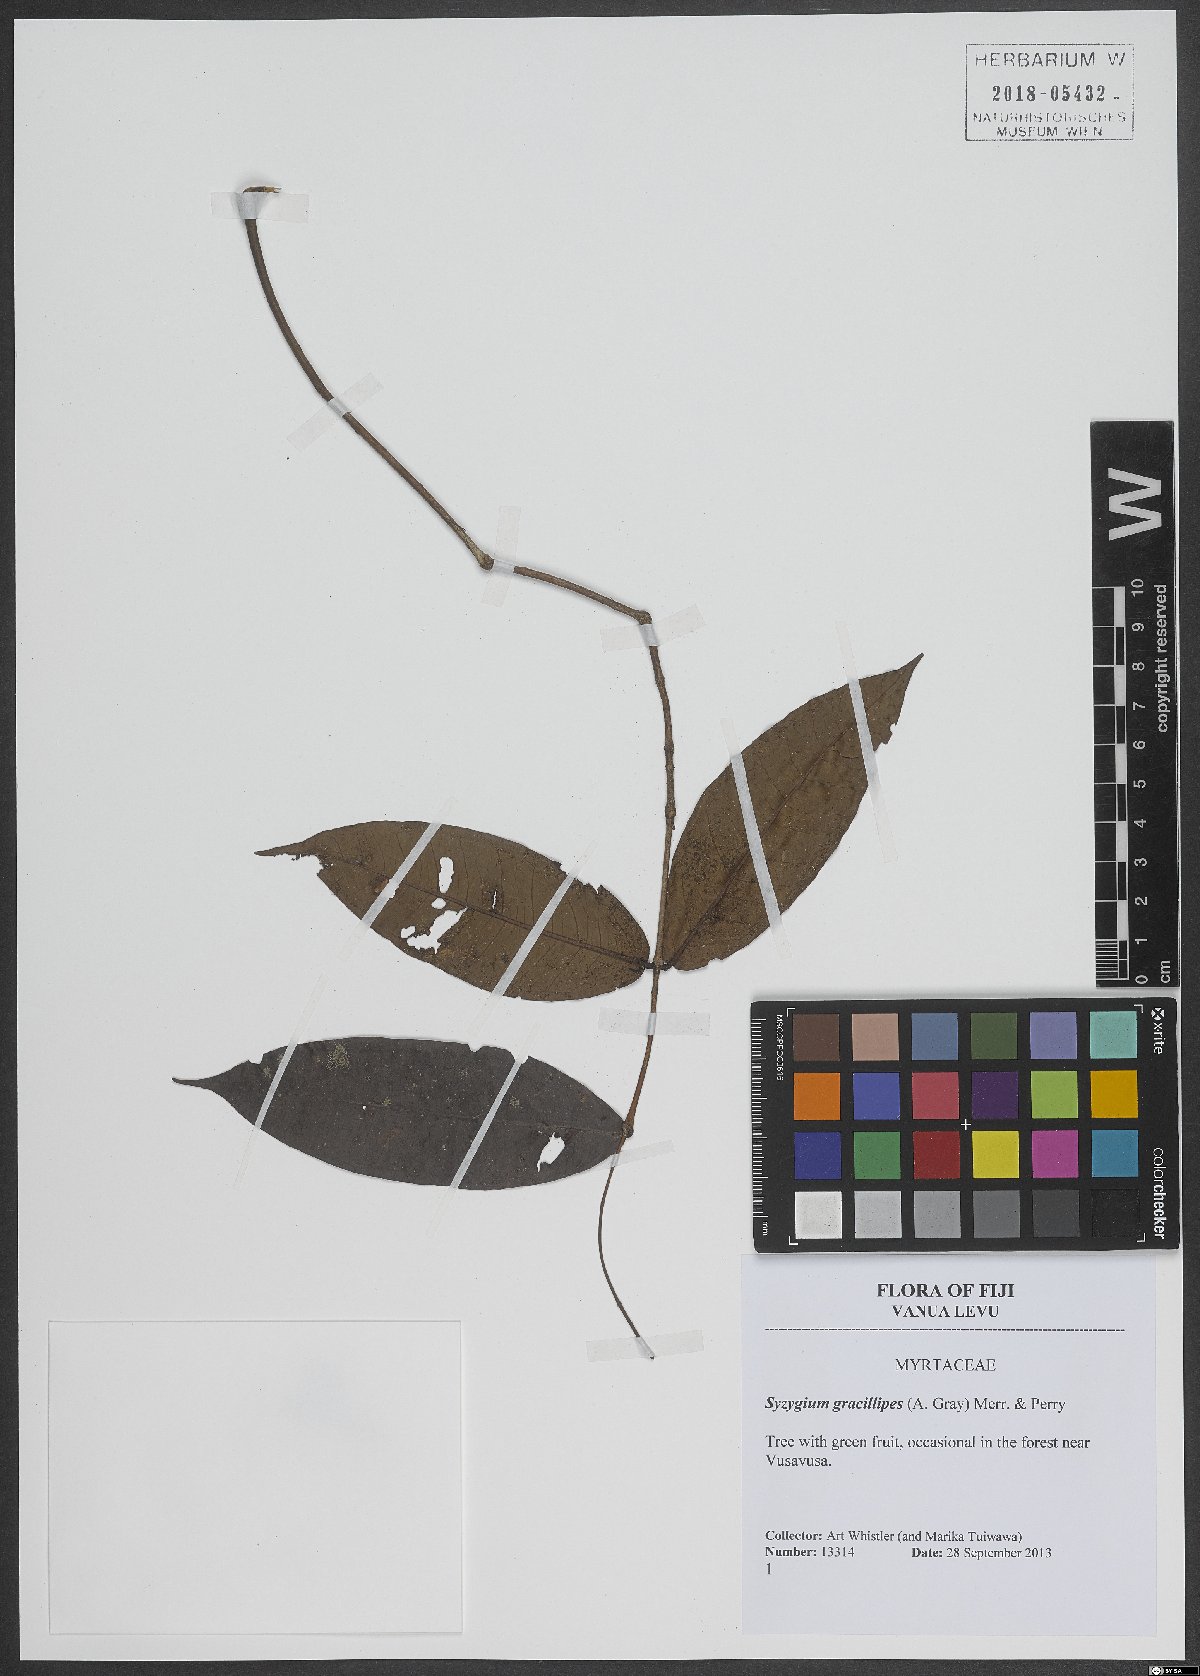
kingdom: Plantae
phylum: Tracheophyta
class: Magnoliopsida
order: Myrtales
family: Myrtaceae
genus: Syzygium
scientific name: Syzygium gracilipes
